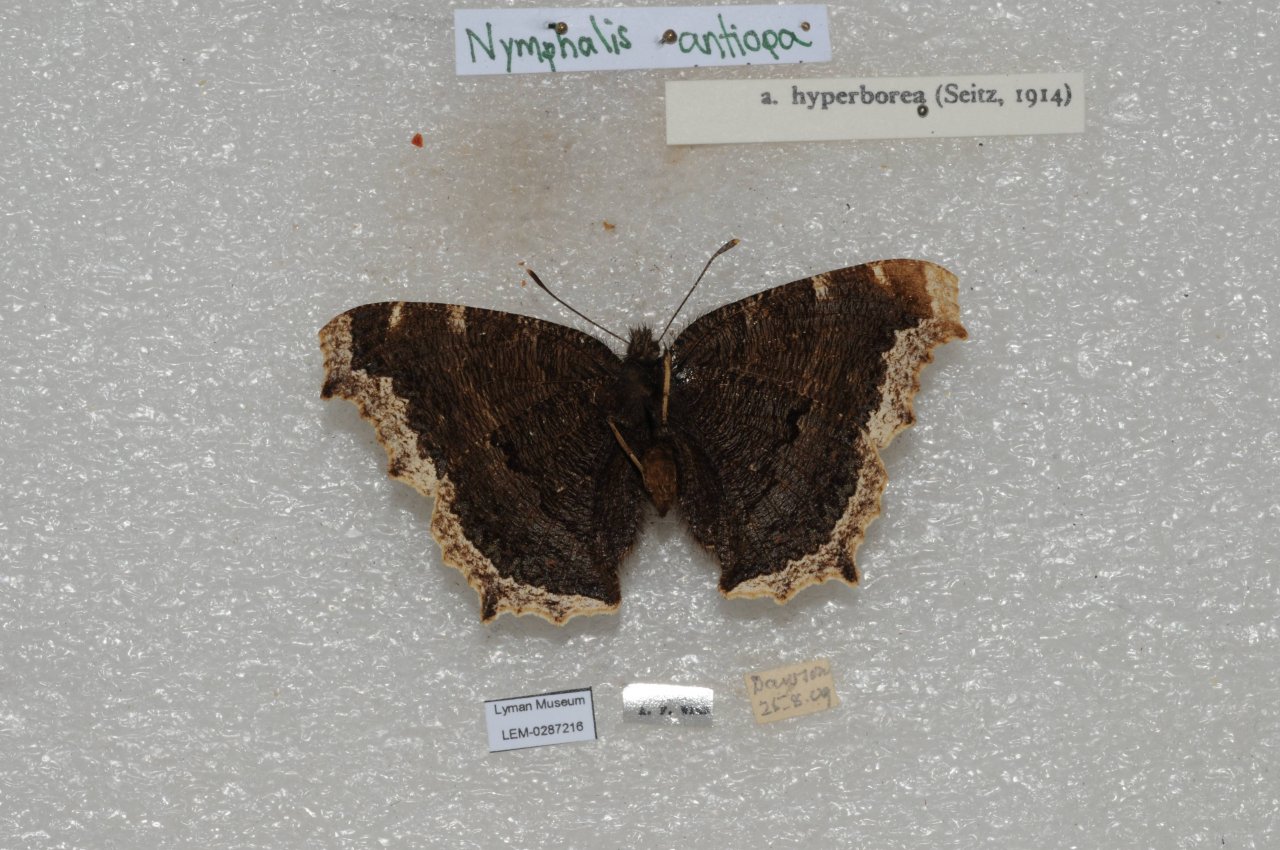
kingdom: Animalia
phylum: Arthropoda
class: Insecta
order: Lepidoptera
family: Nymphalidae
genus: Nymphalis
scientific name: Nymphalis antiopa
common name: Mourning Cloak
